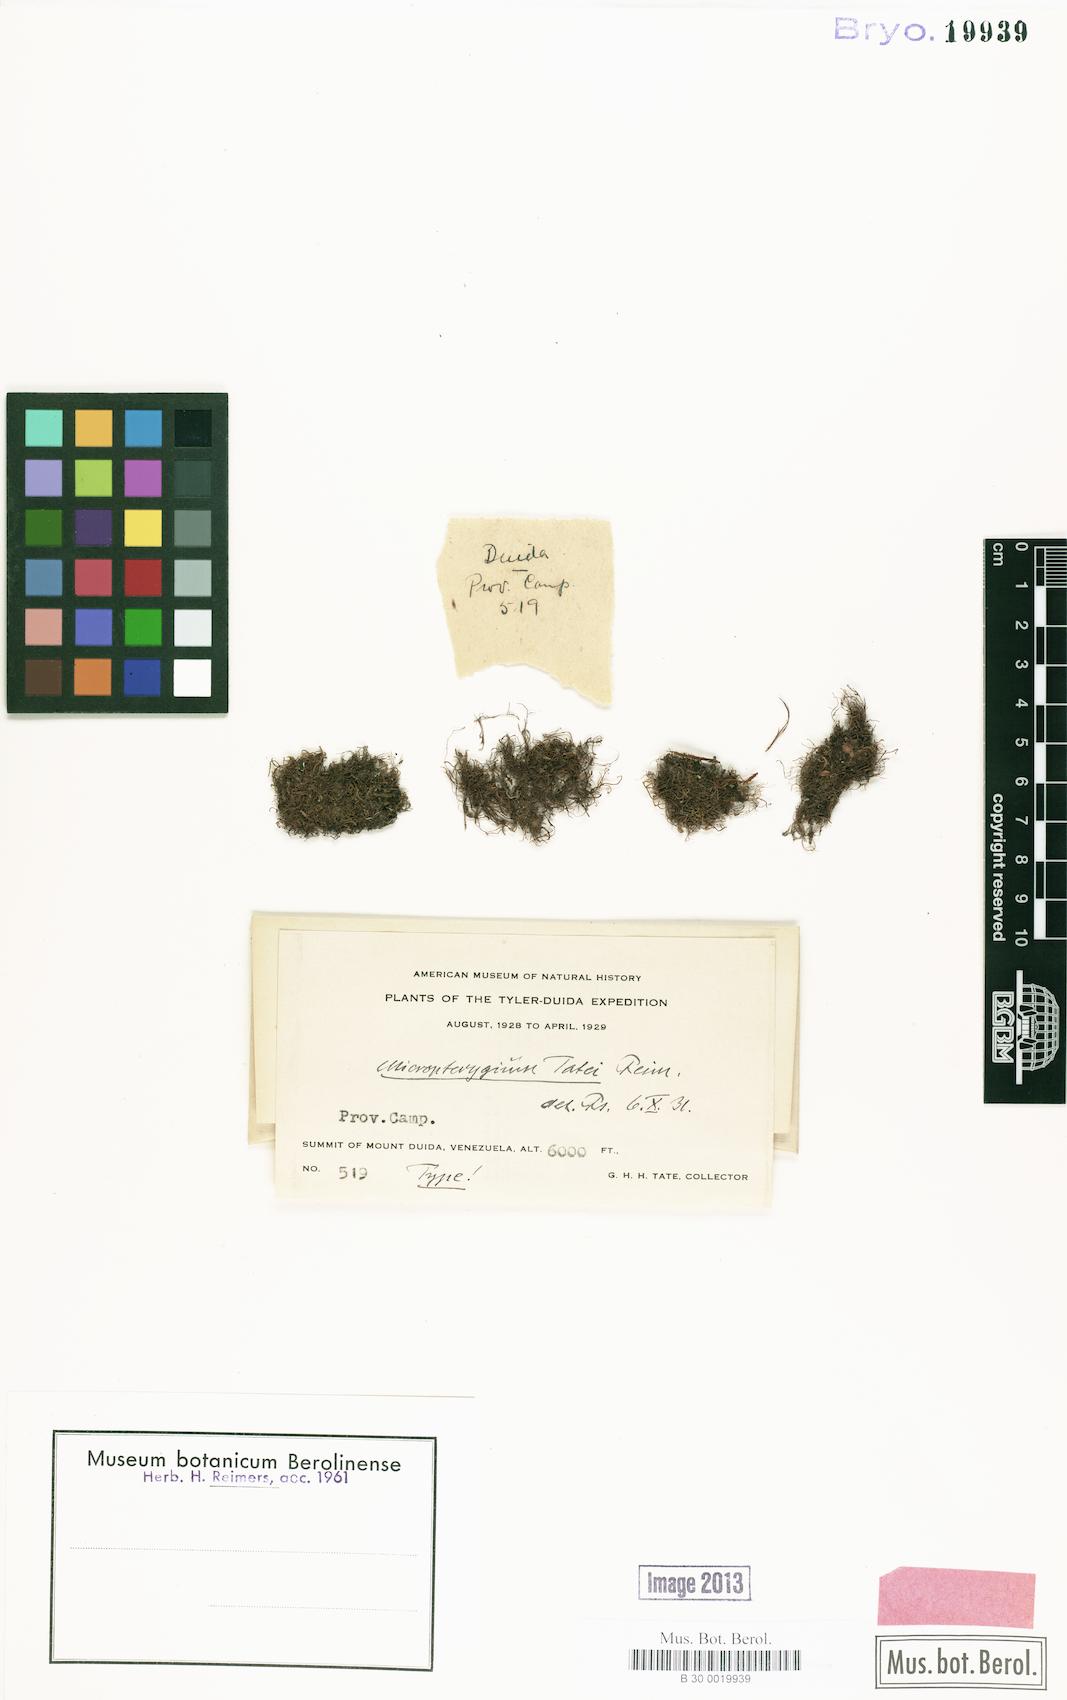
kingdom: Plantae
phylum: Marchantiophyta
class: Jungermanniopsida
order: Jungermanniales
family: Lepidoziaceae
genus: Micropterygium
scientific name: Micropterygium tatei
